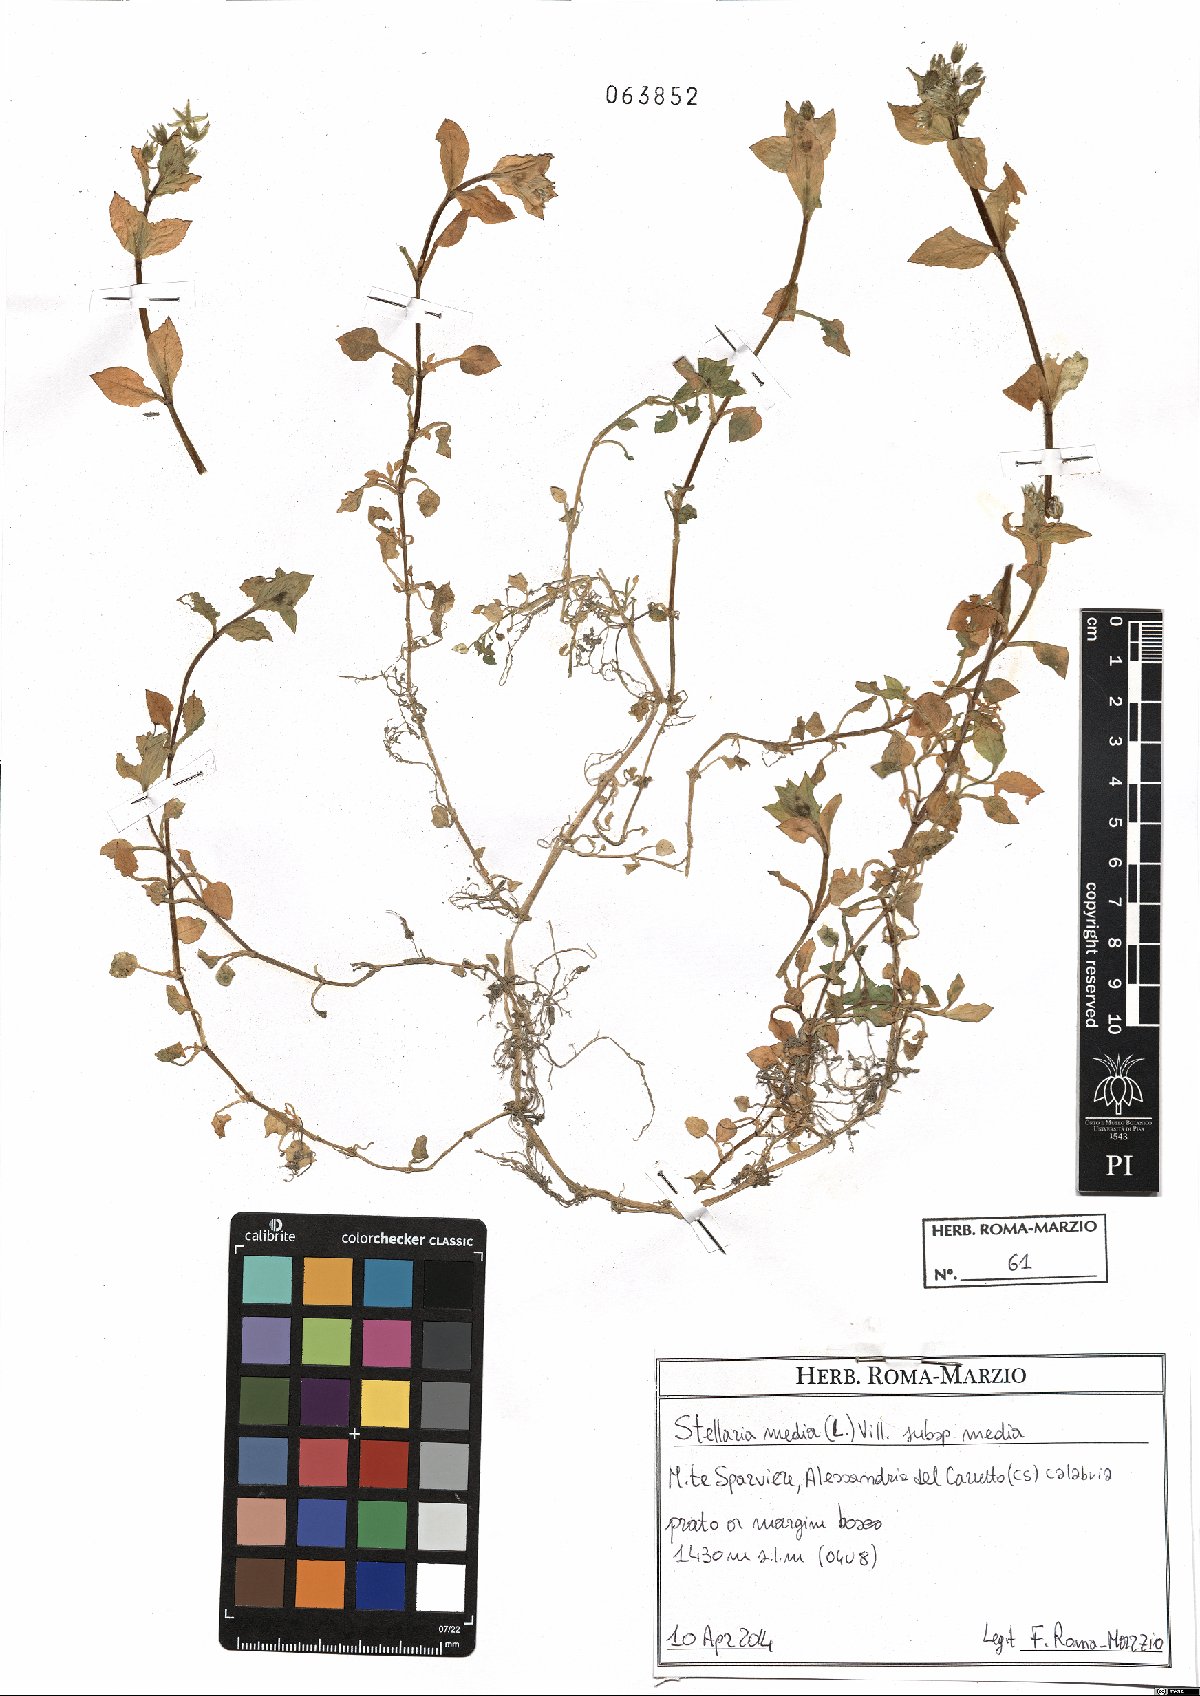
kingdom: Plantae
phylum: Tracheophyta
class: Magnoliopsida
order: Caryophyllales
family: Caryophyllaceae
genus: Stellaria
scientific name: Stellaria media
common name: Common chickweed
